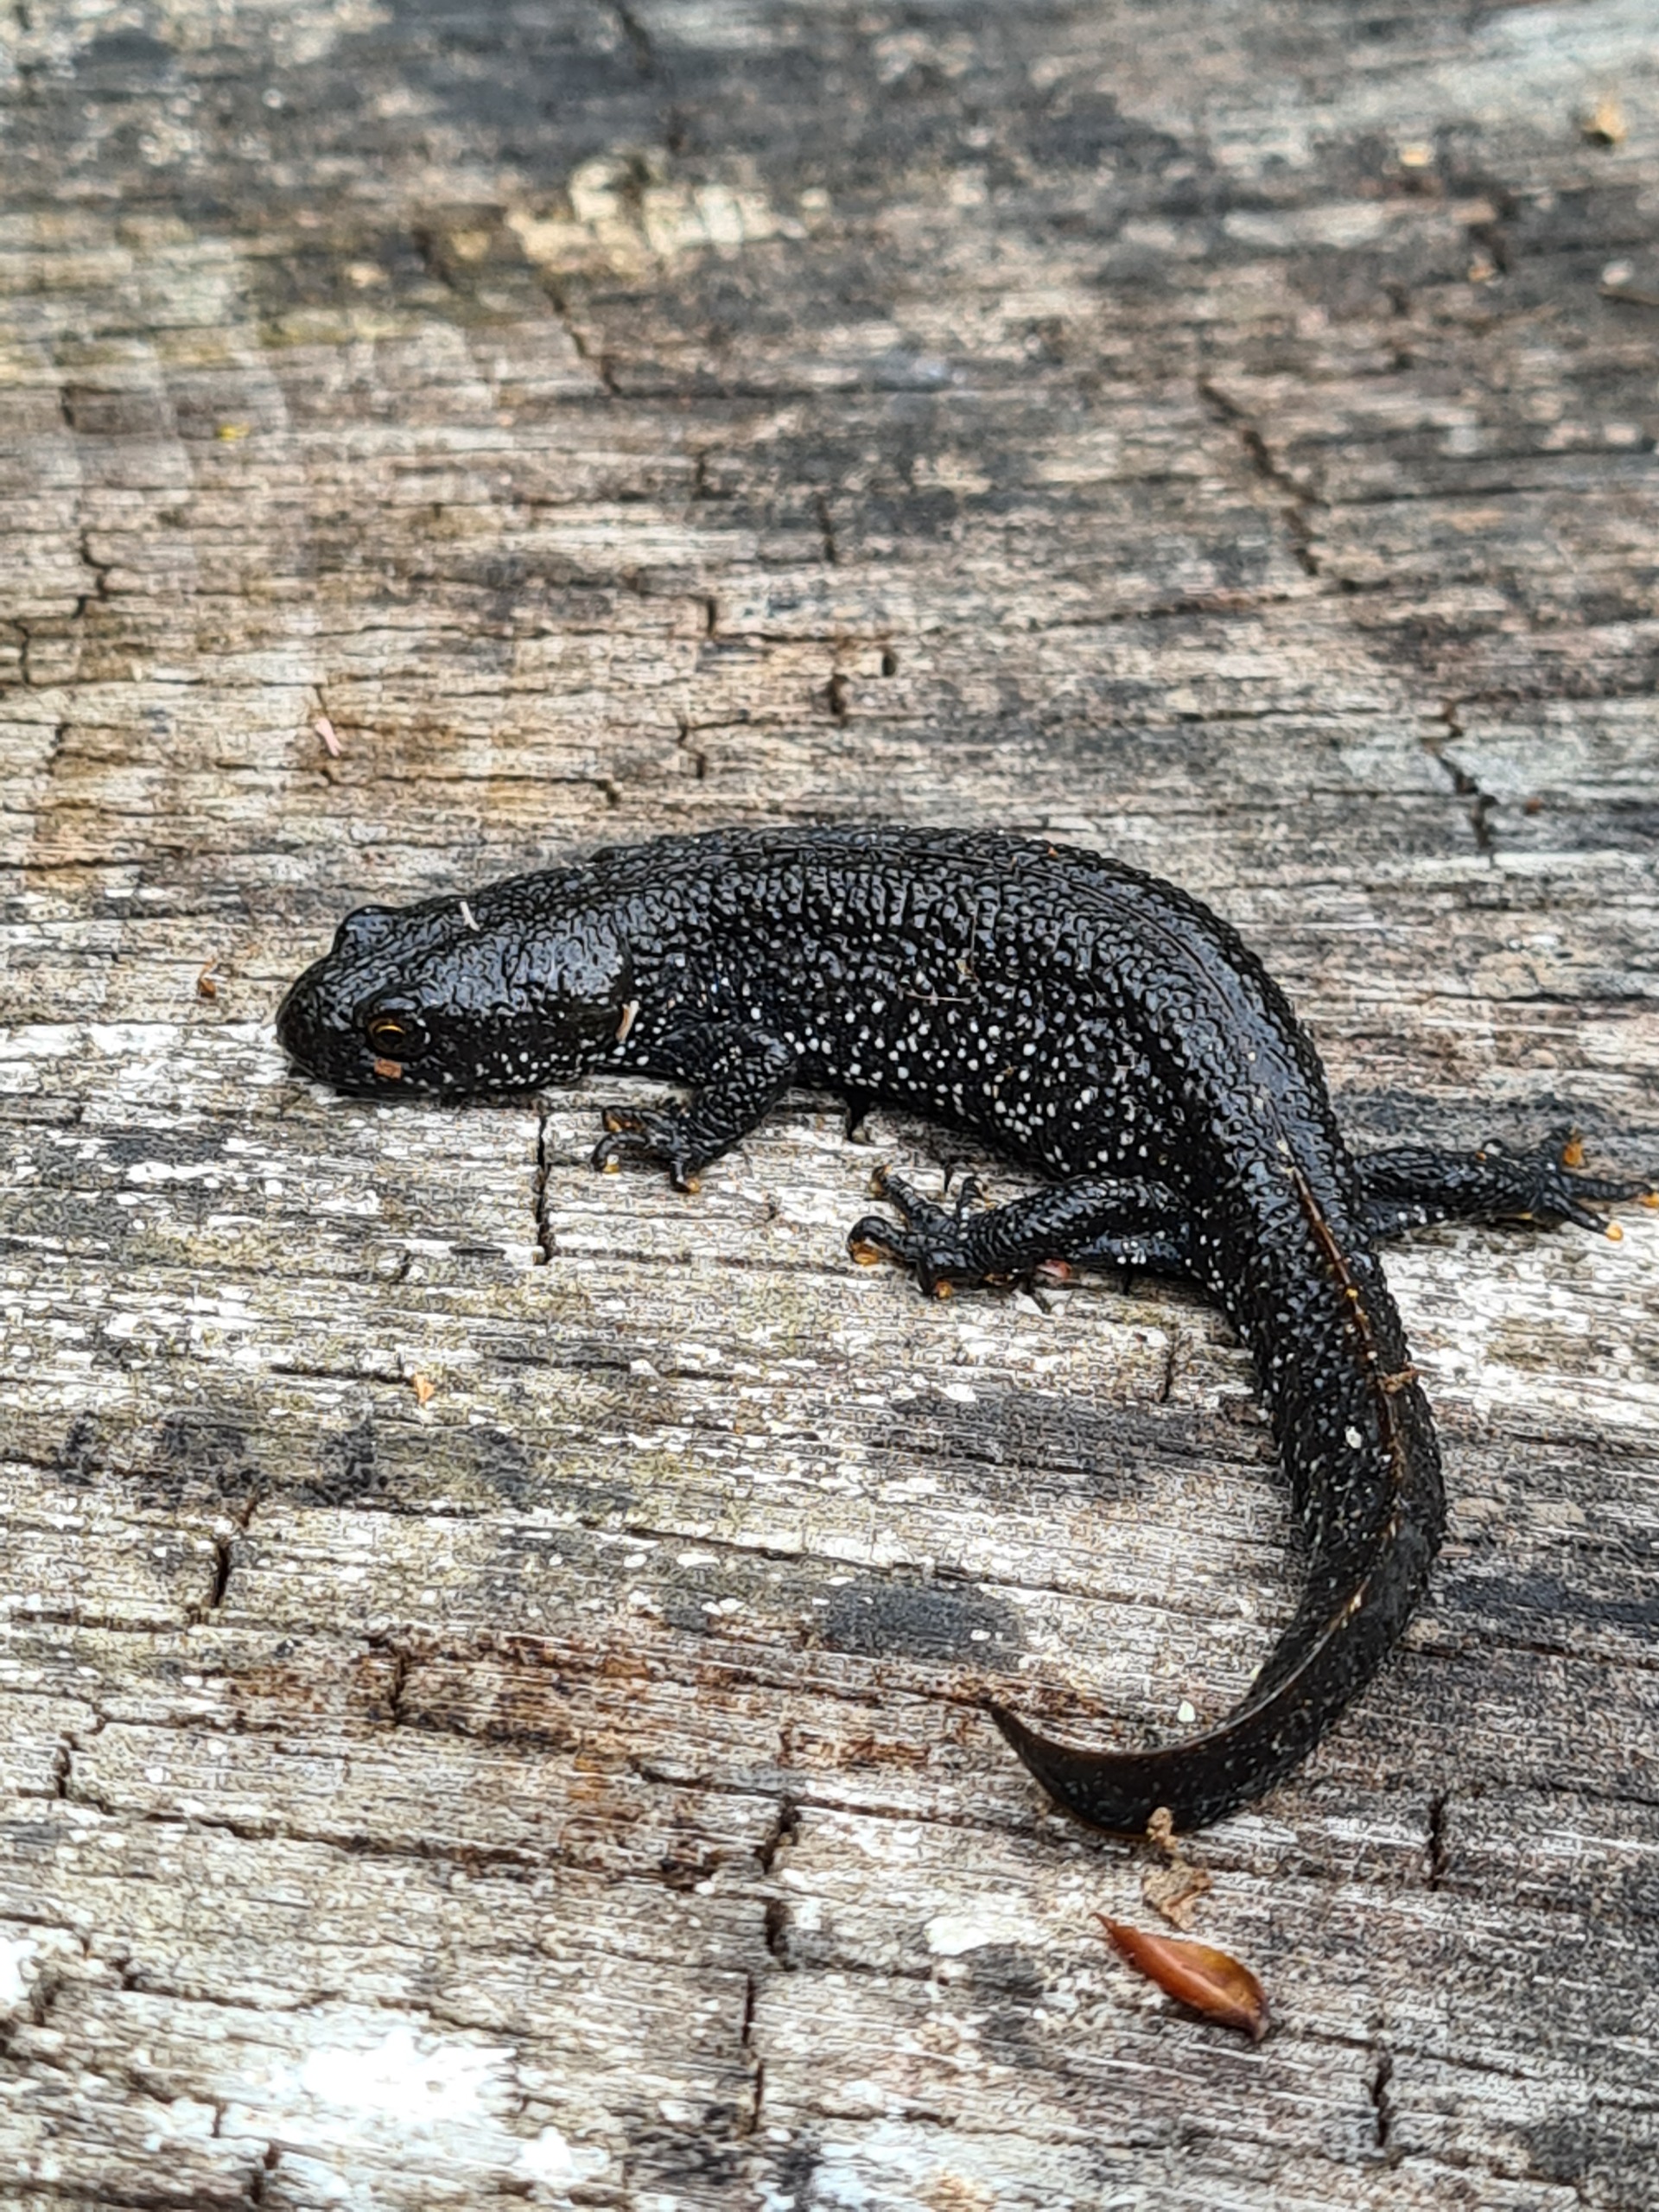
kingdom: Animalia
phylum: Chordata
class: Amphibia
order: Caudata
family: Salamandridae
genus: Triturus
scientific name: Triturus cristatus
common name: Stor vandsalamander
